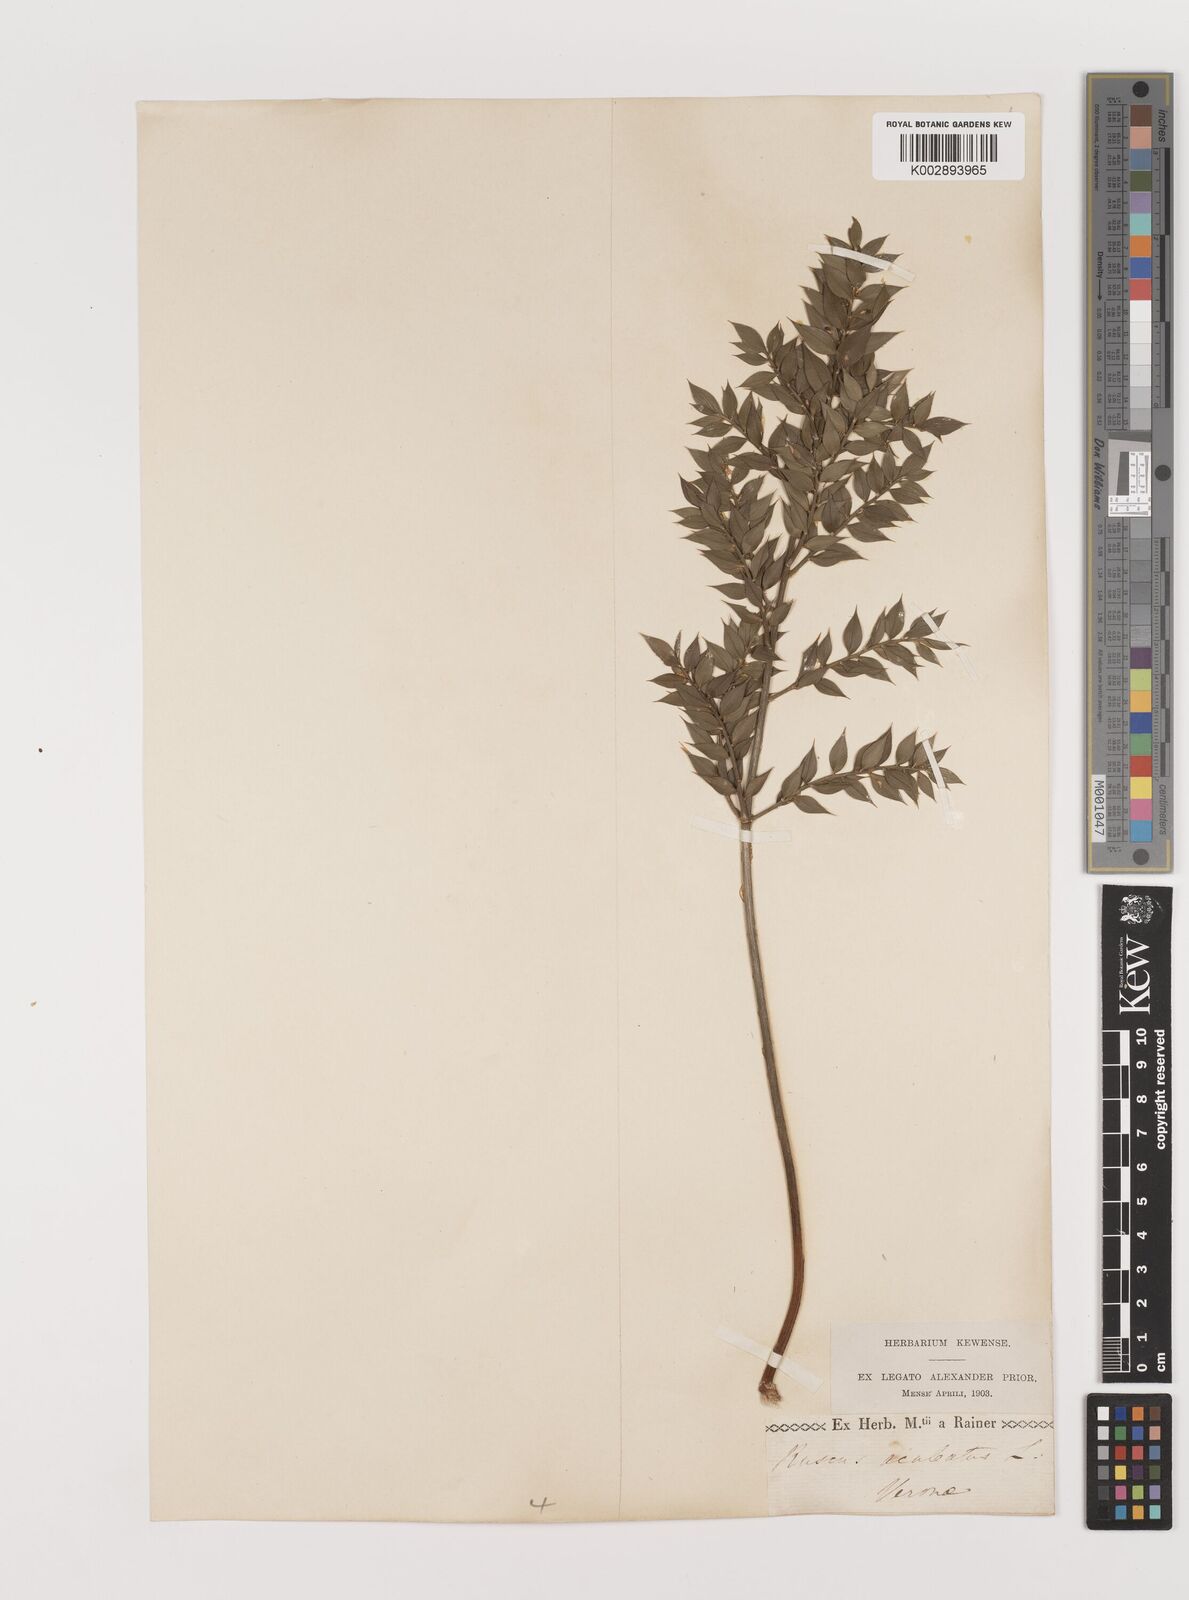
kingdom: Plantae
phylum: Tracheophyta
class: Liliopsida
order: Asparagales
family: Asparagaceae
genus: Ruscus
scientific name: Ruscus
